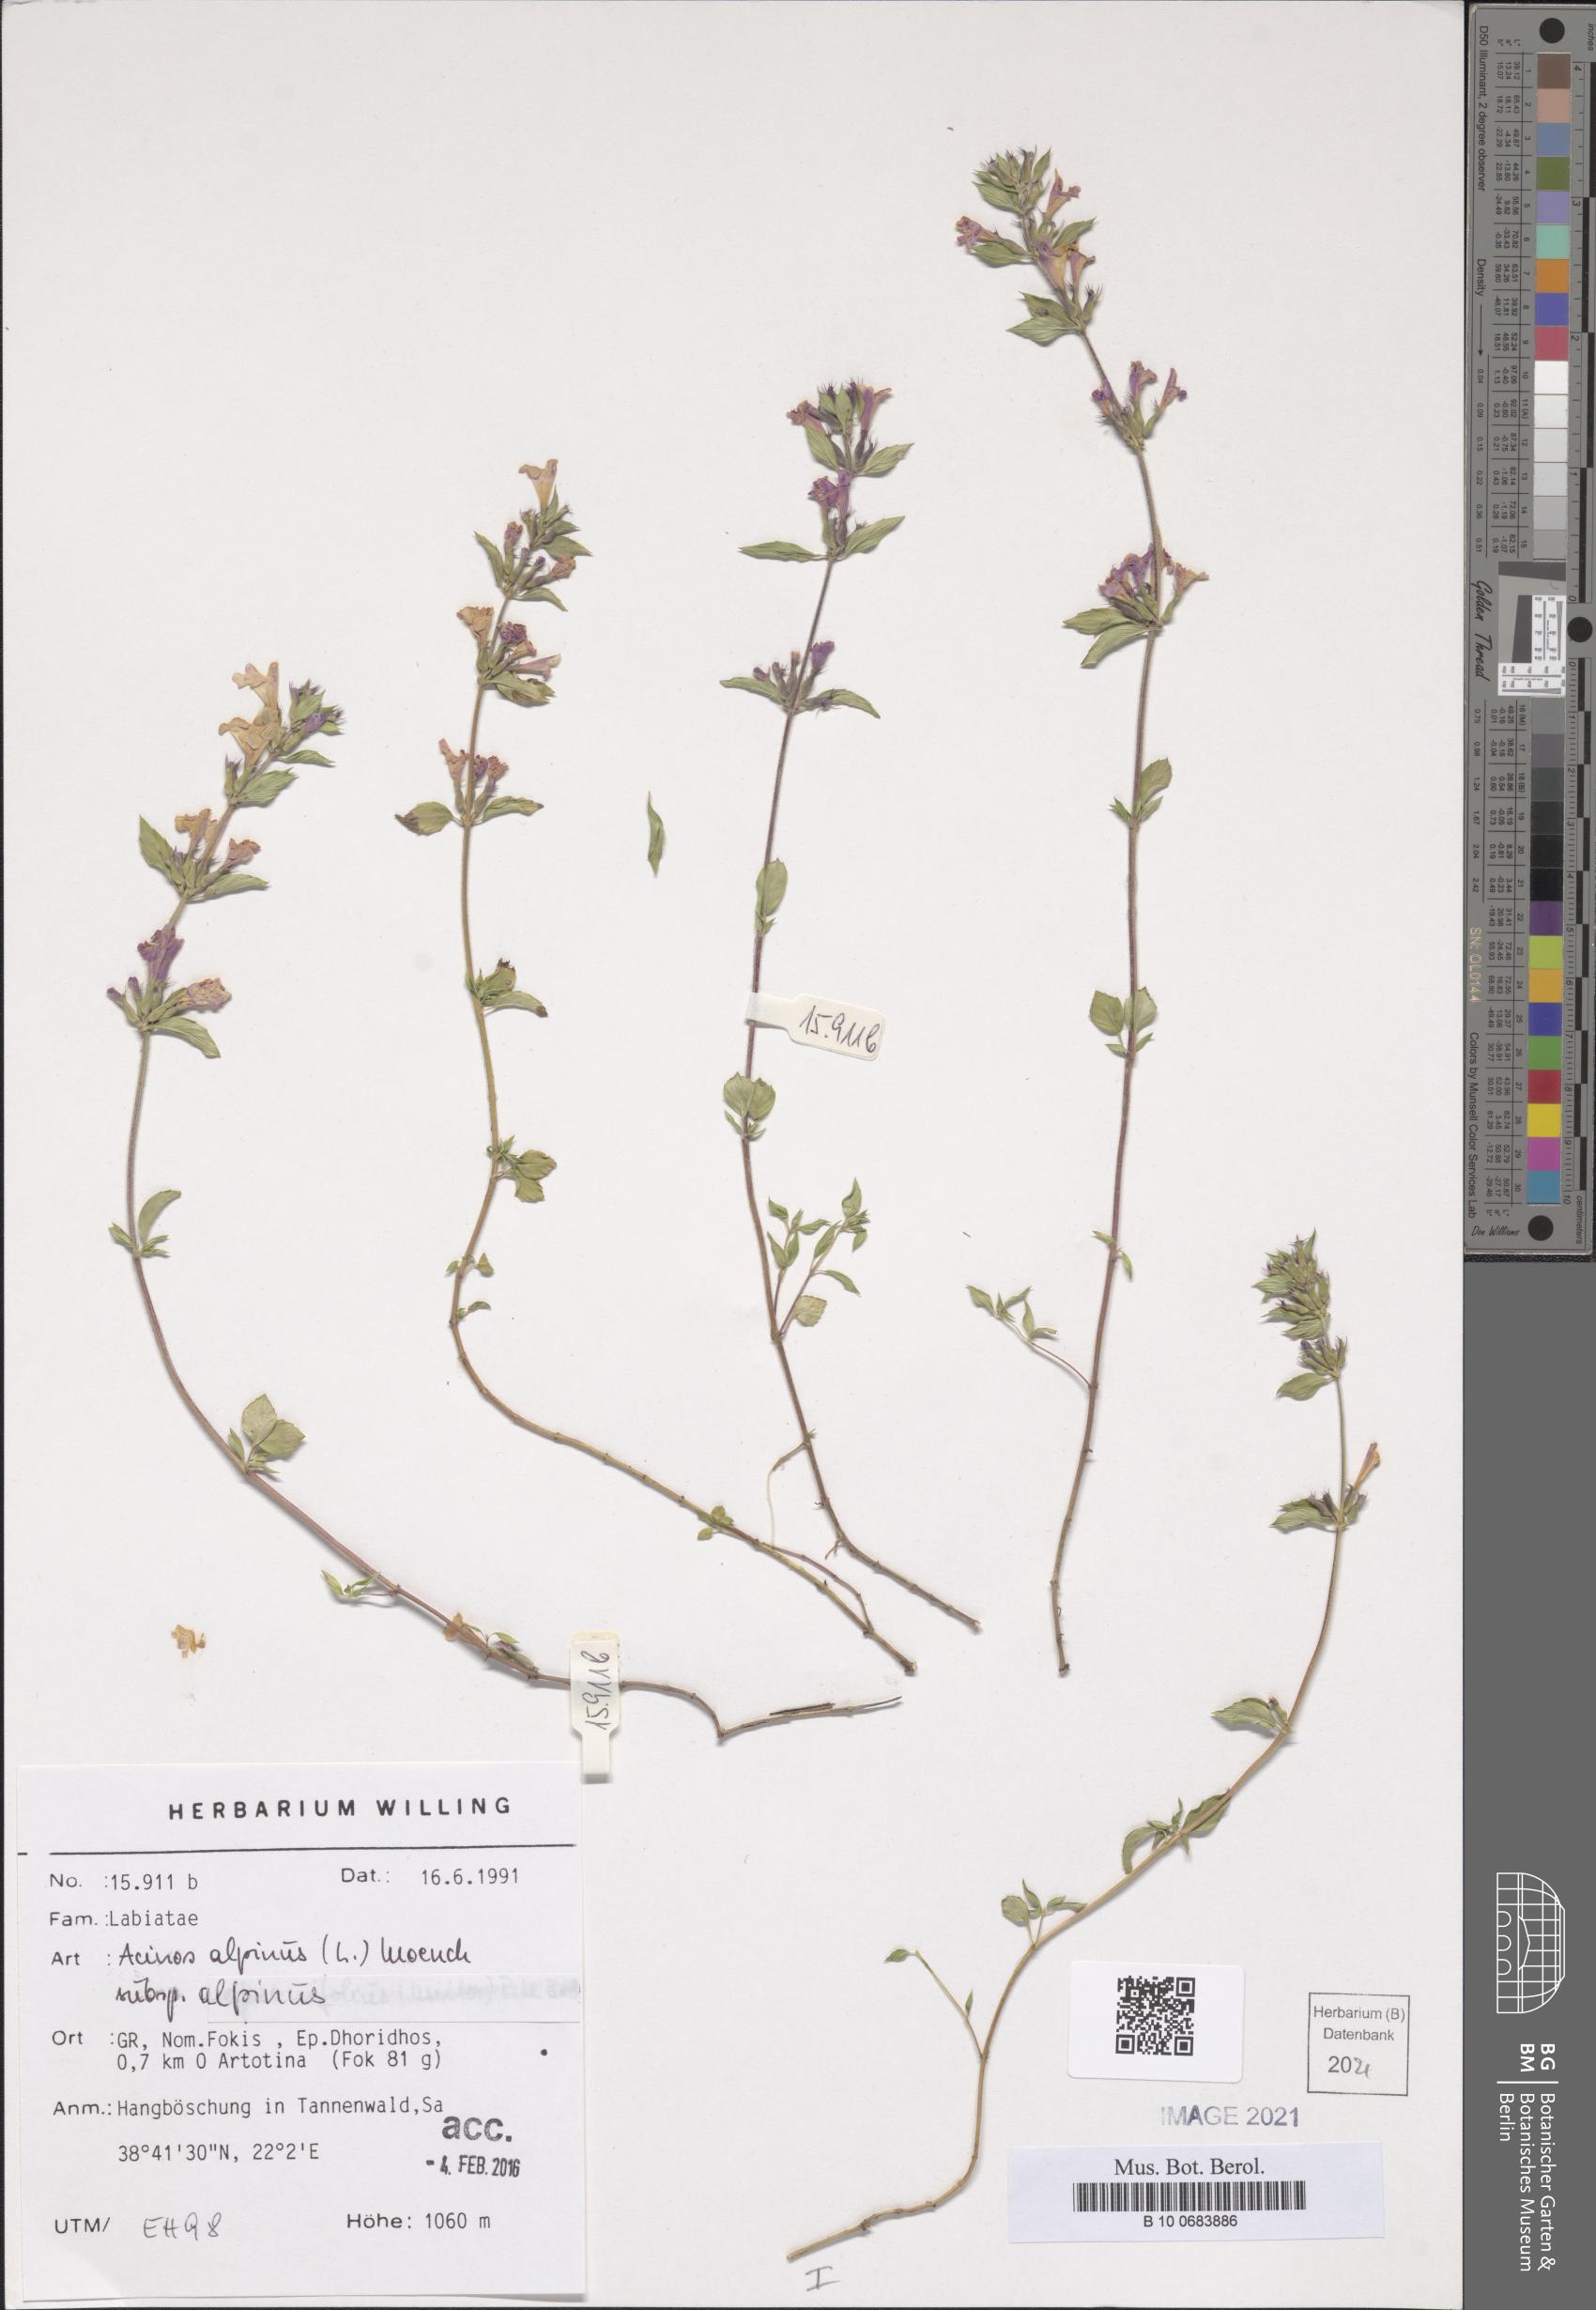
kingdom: Plantae
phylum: Tracheophyta
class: Magnoliopsida
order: Lamiales
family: Lamiaceae
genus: Clinopodium
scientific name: Clinopodium alpinum
